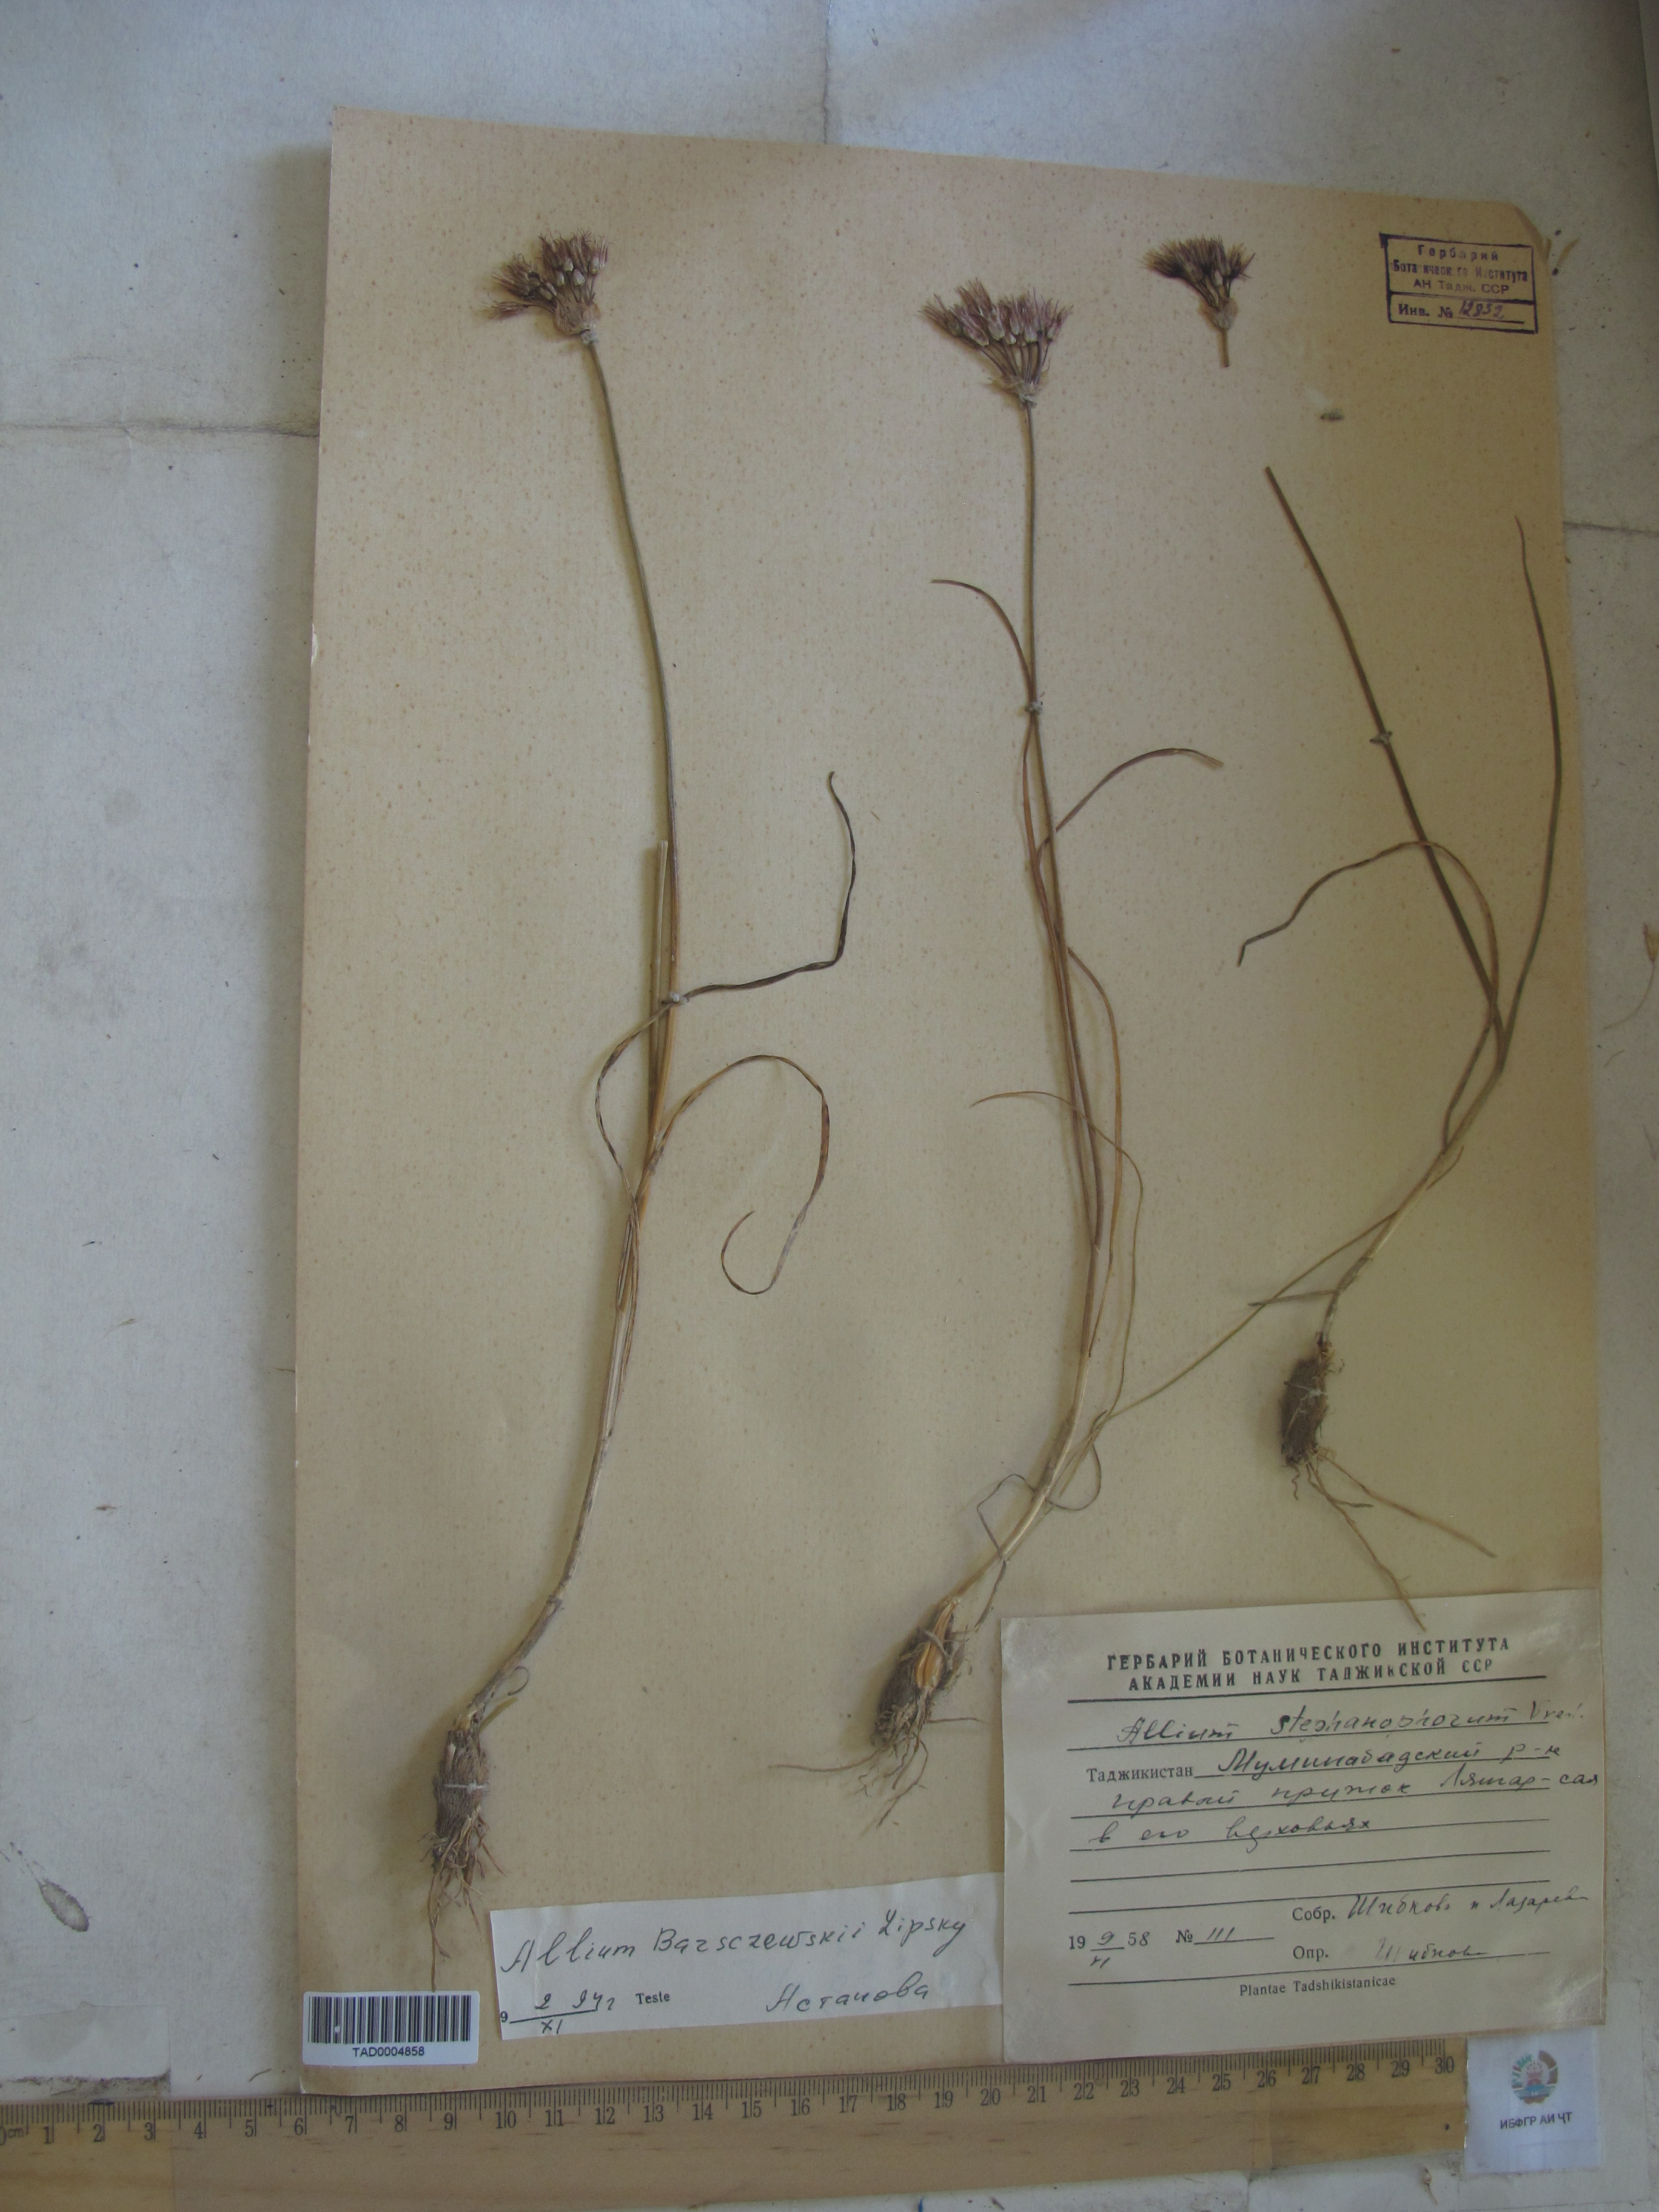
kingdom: Plantae
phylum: Tracheophyta
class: Liliopsida
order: Asparagales
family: Amaryllidaceae
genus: Allium
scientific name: Allium barsczewskii
